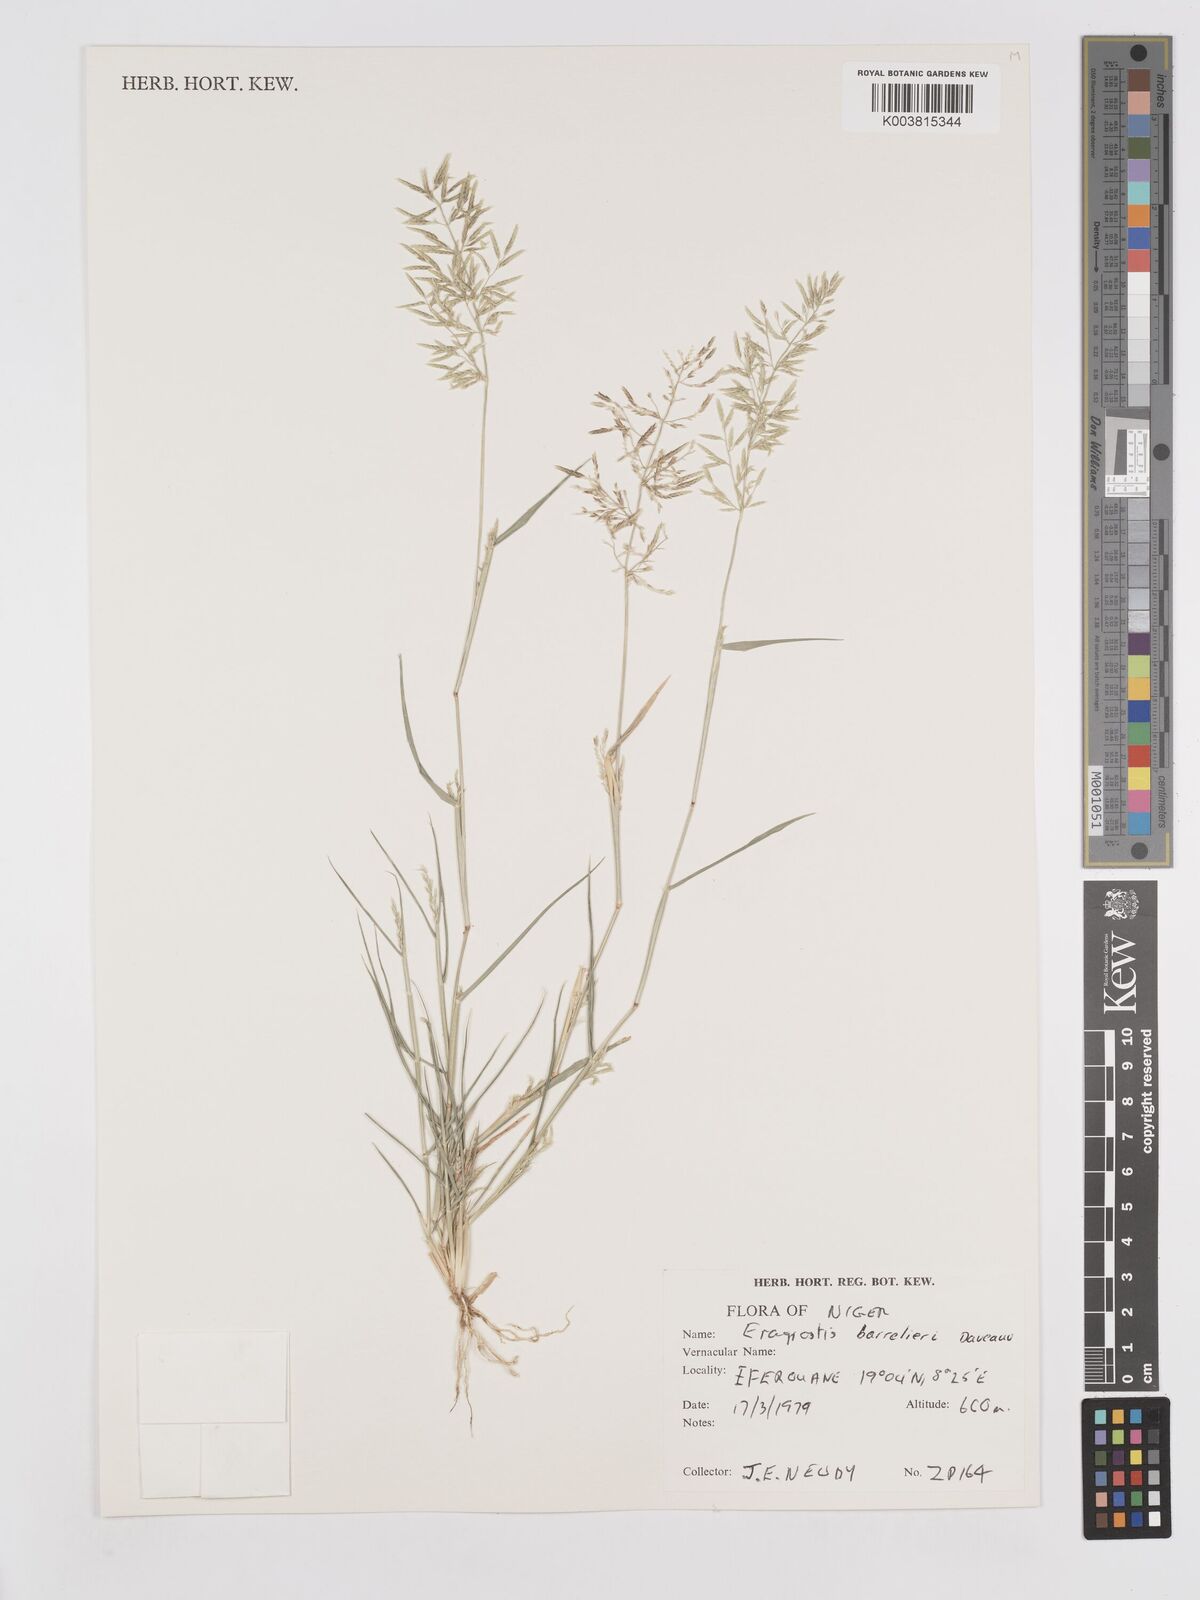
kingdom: Plantae
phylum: Tracheophyta
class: Liliopsida
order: Poales
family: Poaceae
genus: Eragrostis
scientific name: Eragrostis barrelieri
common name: Mediterranean lovegrass
